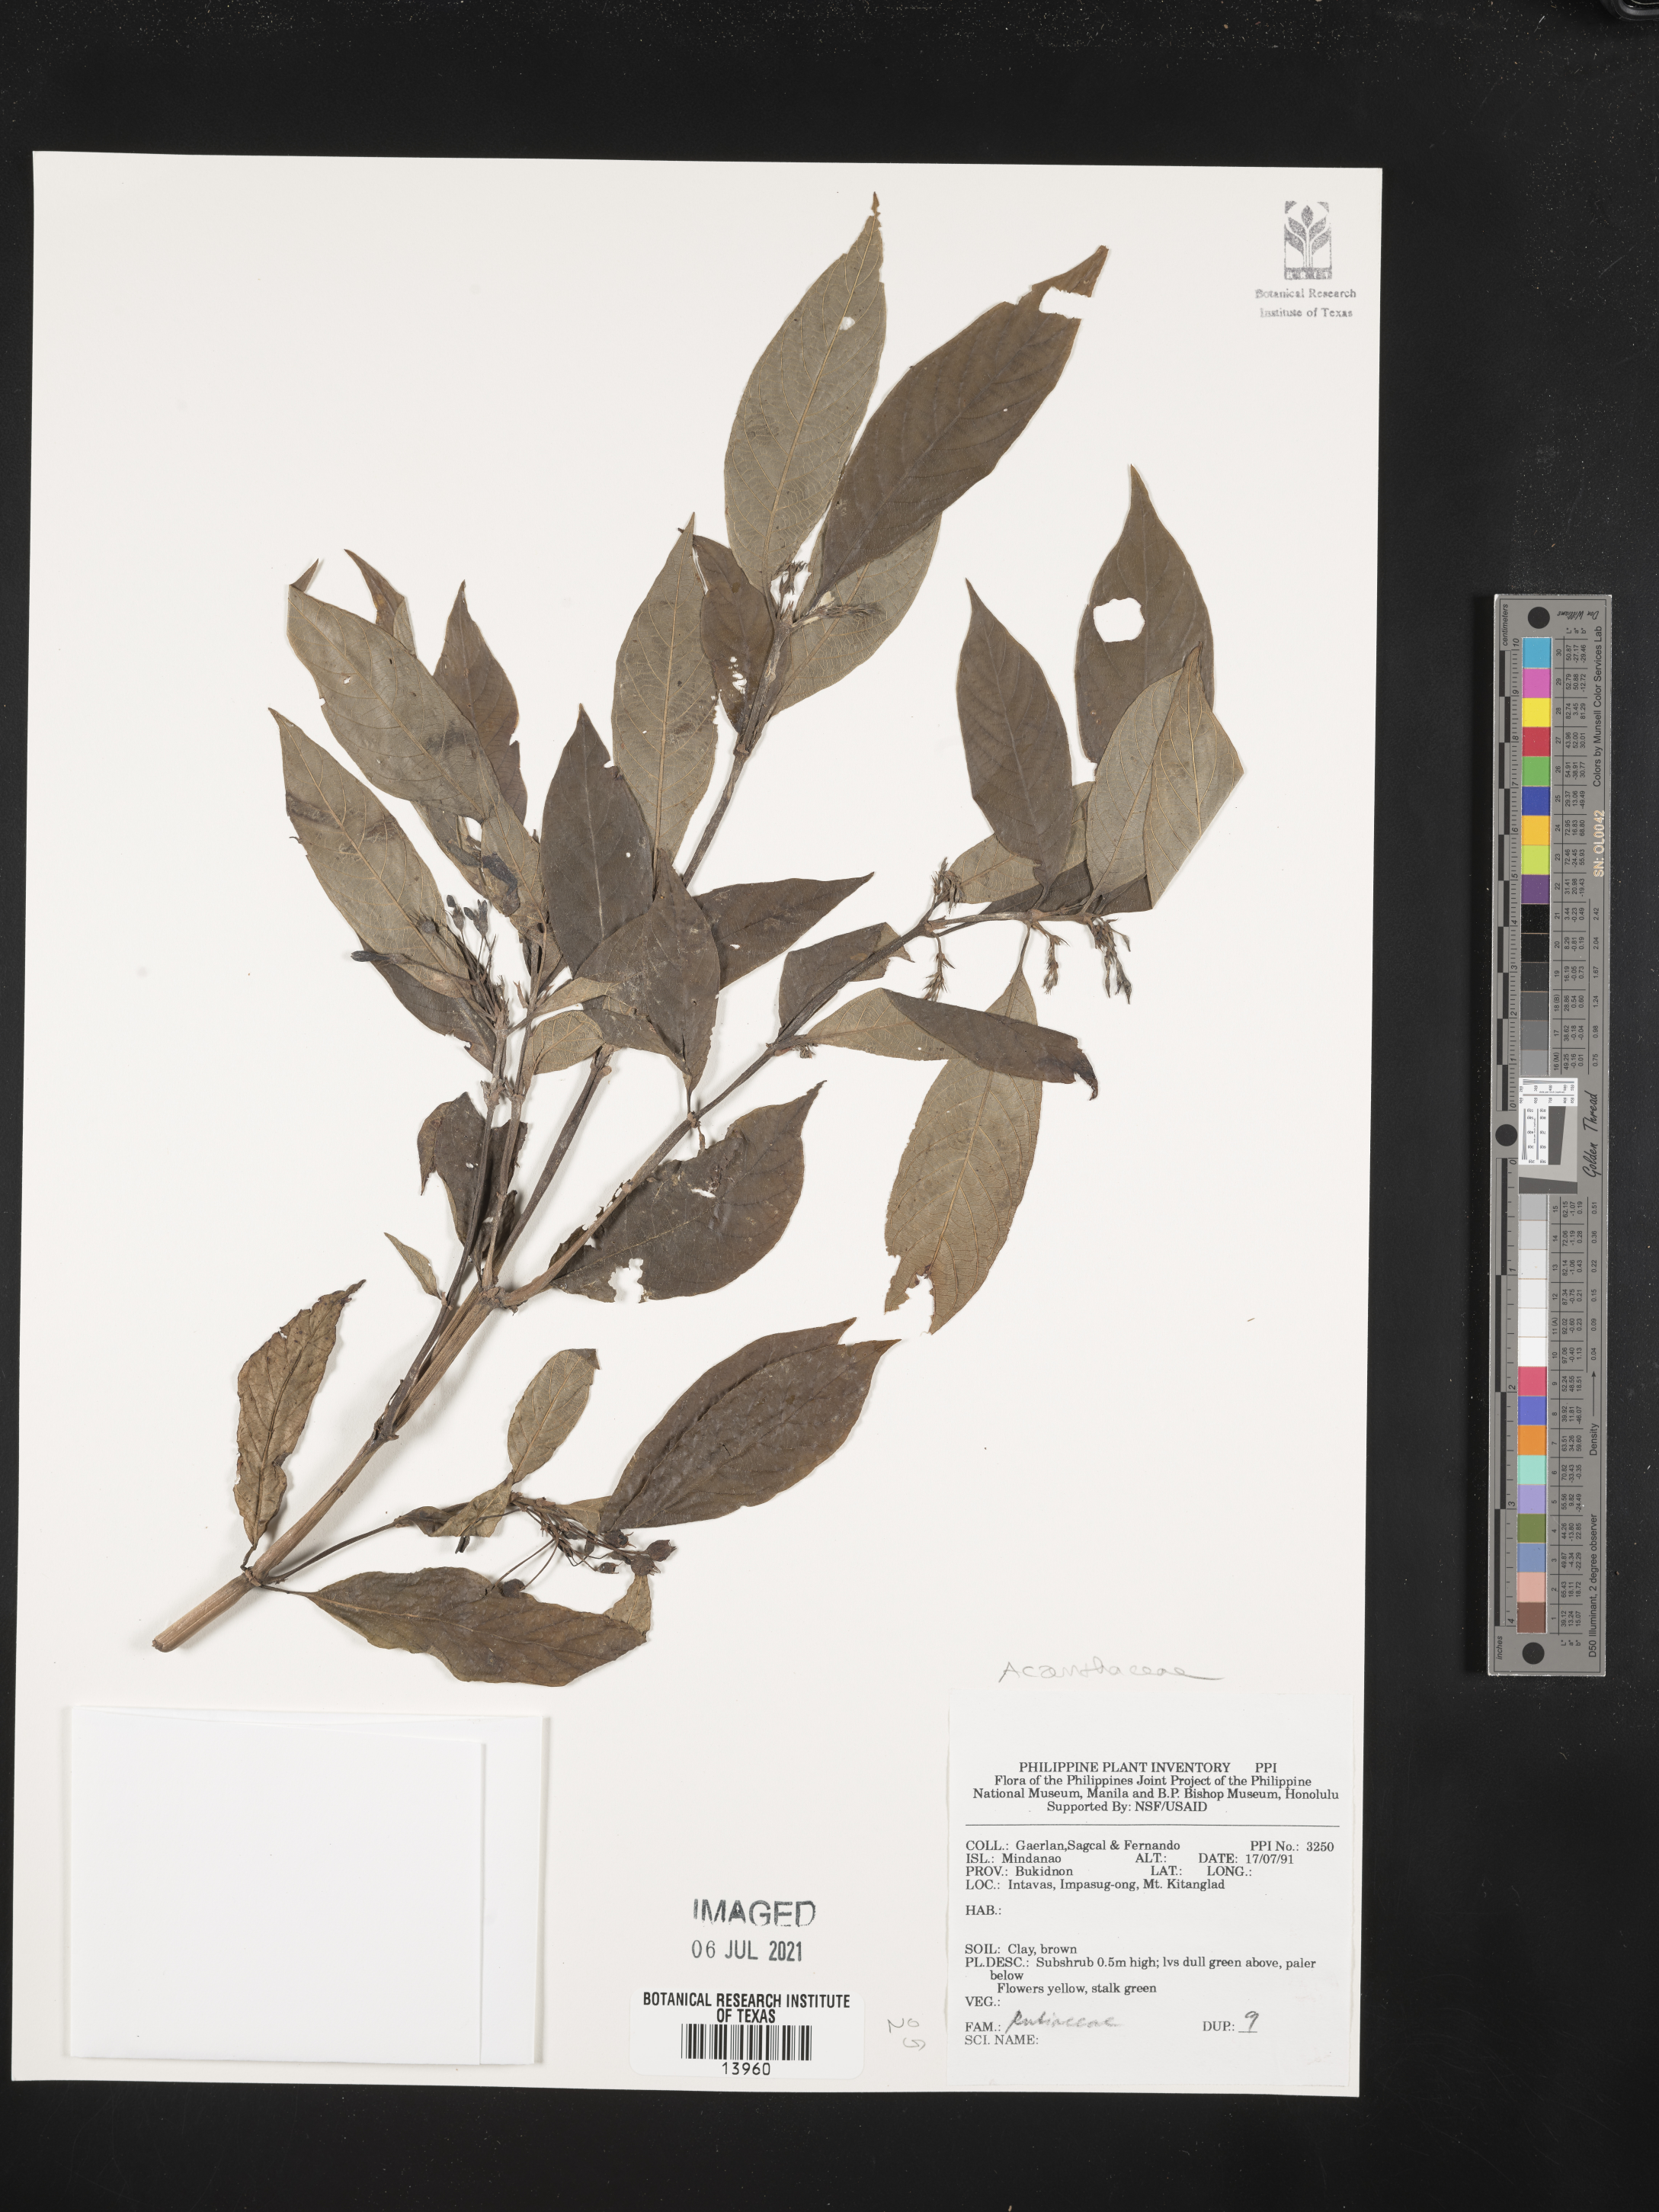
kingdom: Plantae
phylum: Tracheophyta
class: Magnoliopsida
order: Lamiales
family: Acanthaceae
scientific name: Acanthaceae
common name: Acanthaceae
